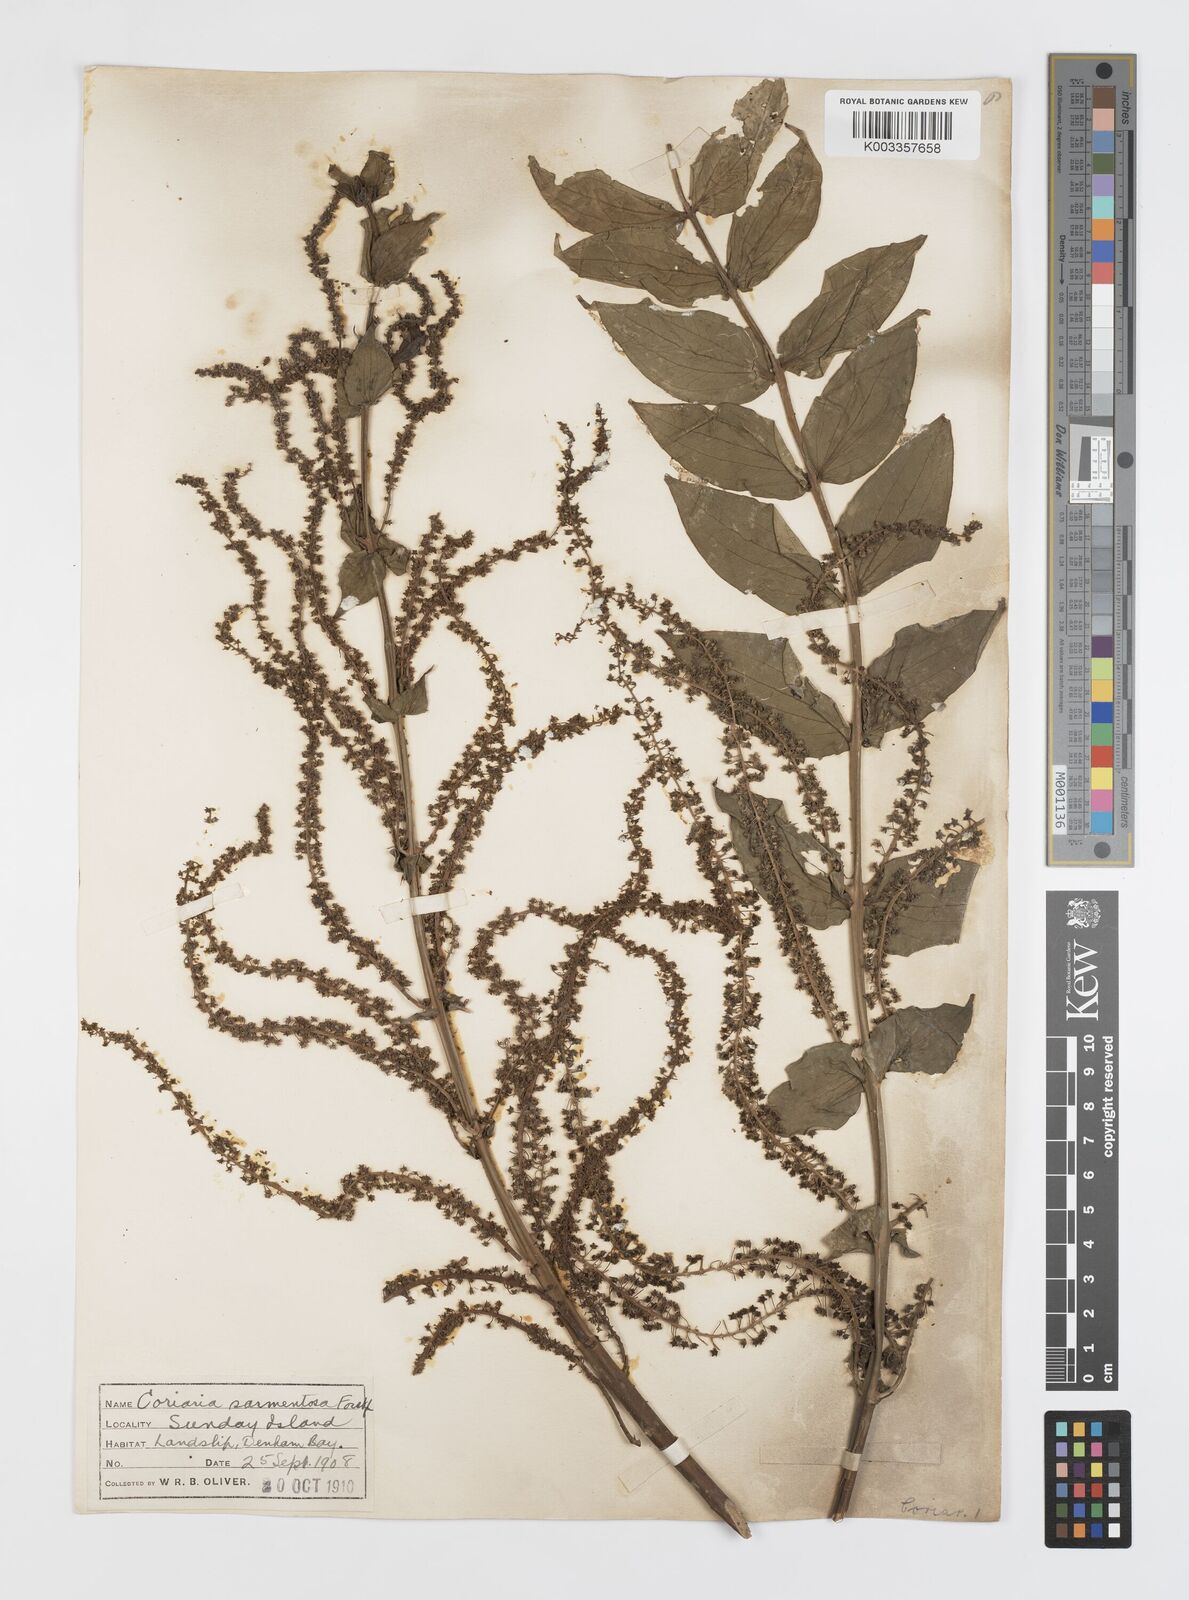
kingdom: Plantae
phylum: Tracheophyta
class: Magnoliopsida
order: Cucurbitales
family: Coriariaceae
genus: Coriaria
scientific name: Coriaria ruscifolia
